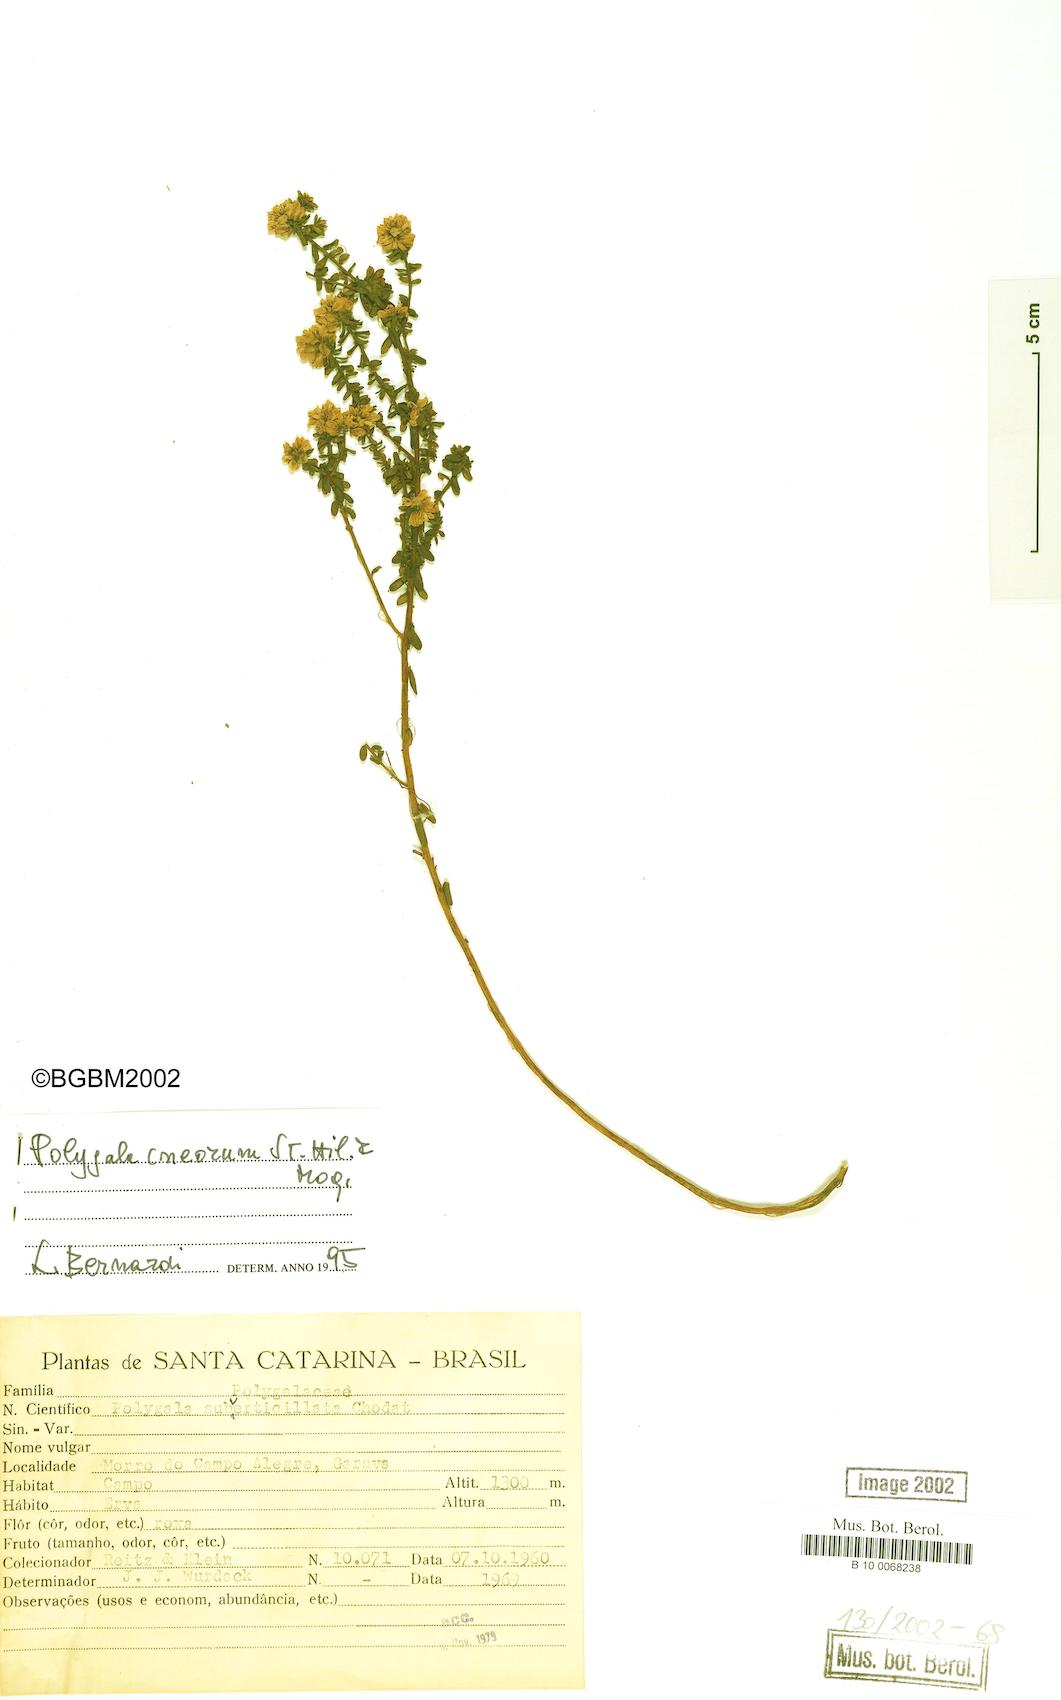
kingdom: Plantae
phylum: Tracheophyta
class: Magnoliopsida
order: Fabales
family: Polygalaceae
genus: Polygala
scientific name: Polygala cneorum
